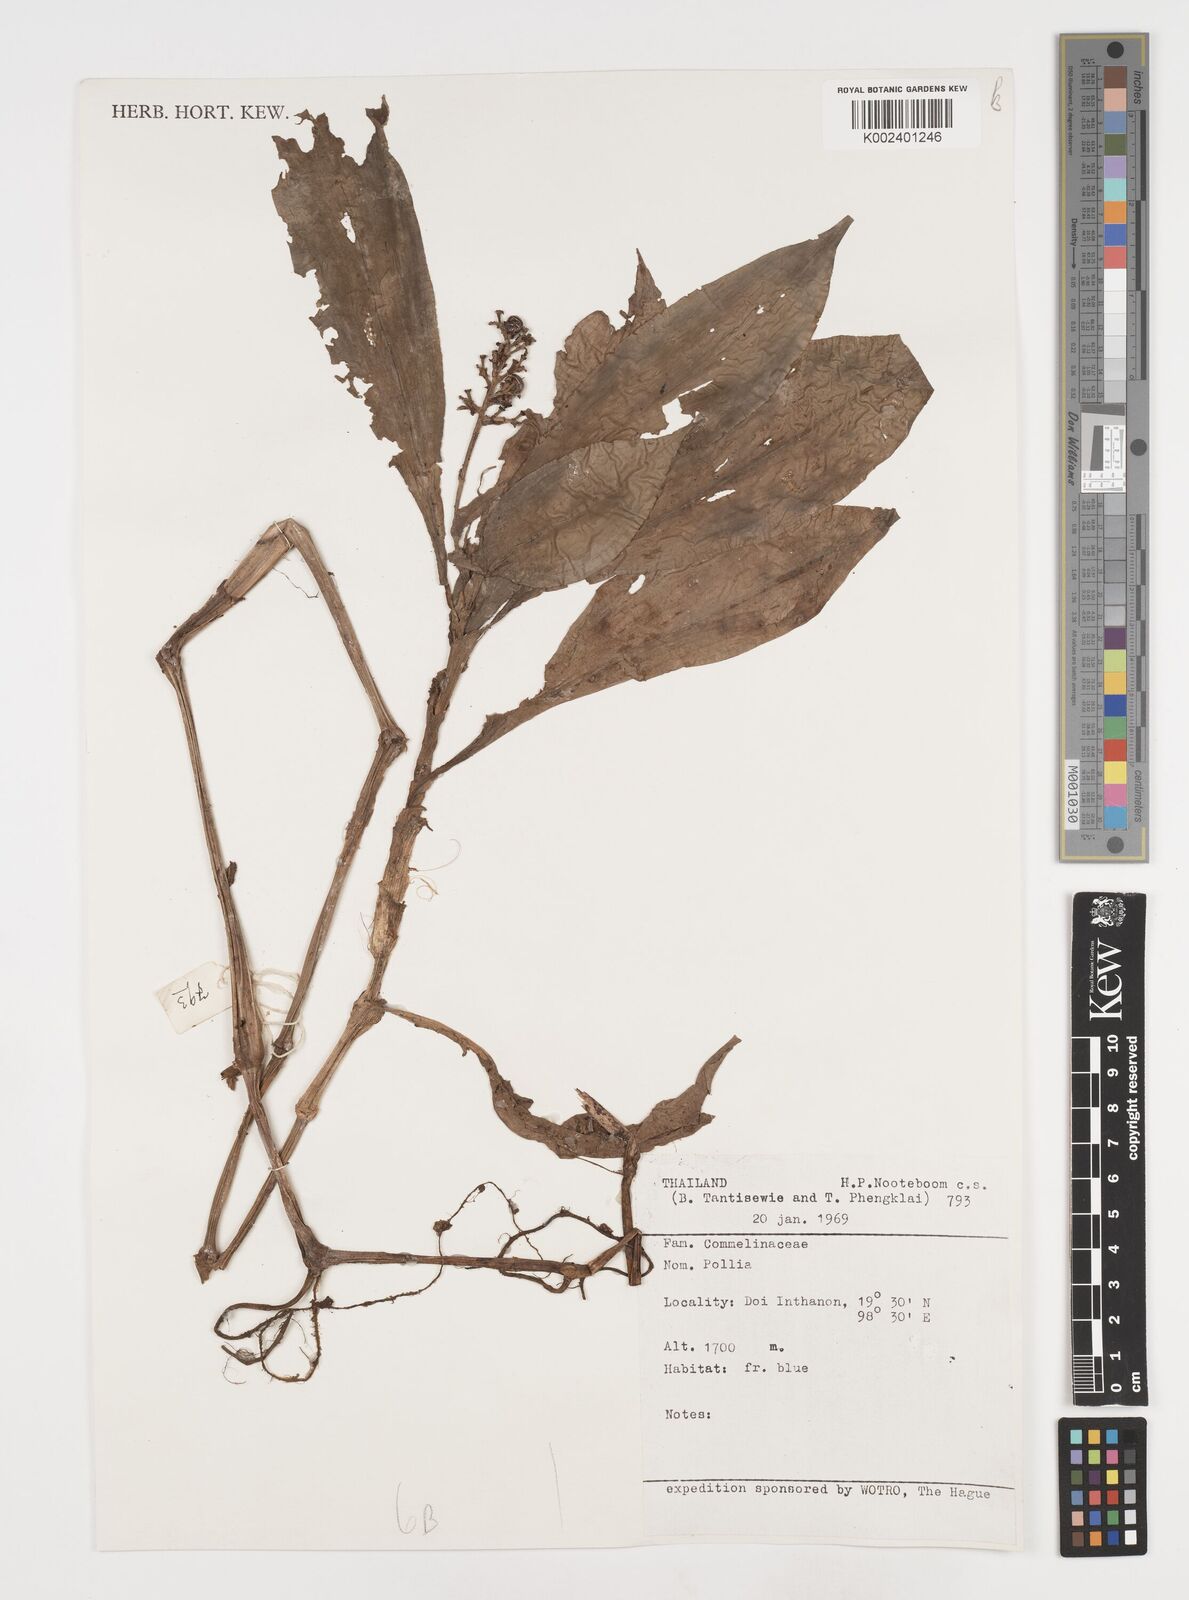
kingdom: Plantae
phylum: Tracheophyta
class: Liliopsida
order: Commelinales
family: Commelinaceae
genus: Pollia
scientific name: Pollia
